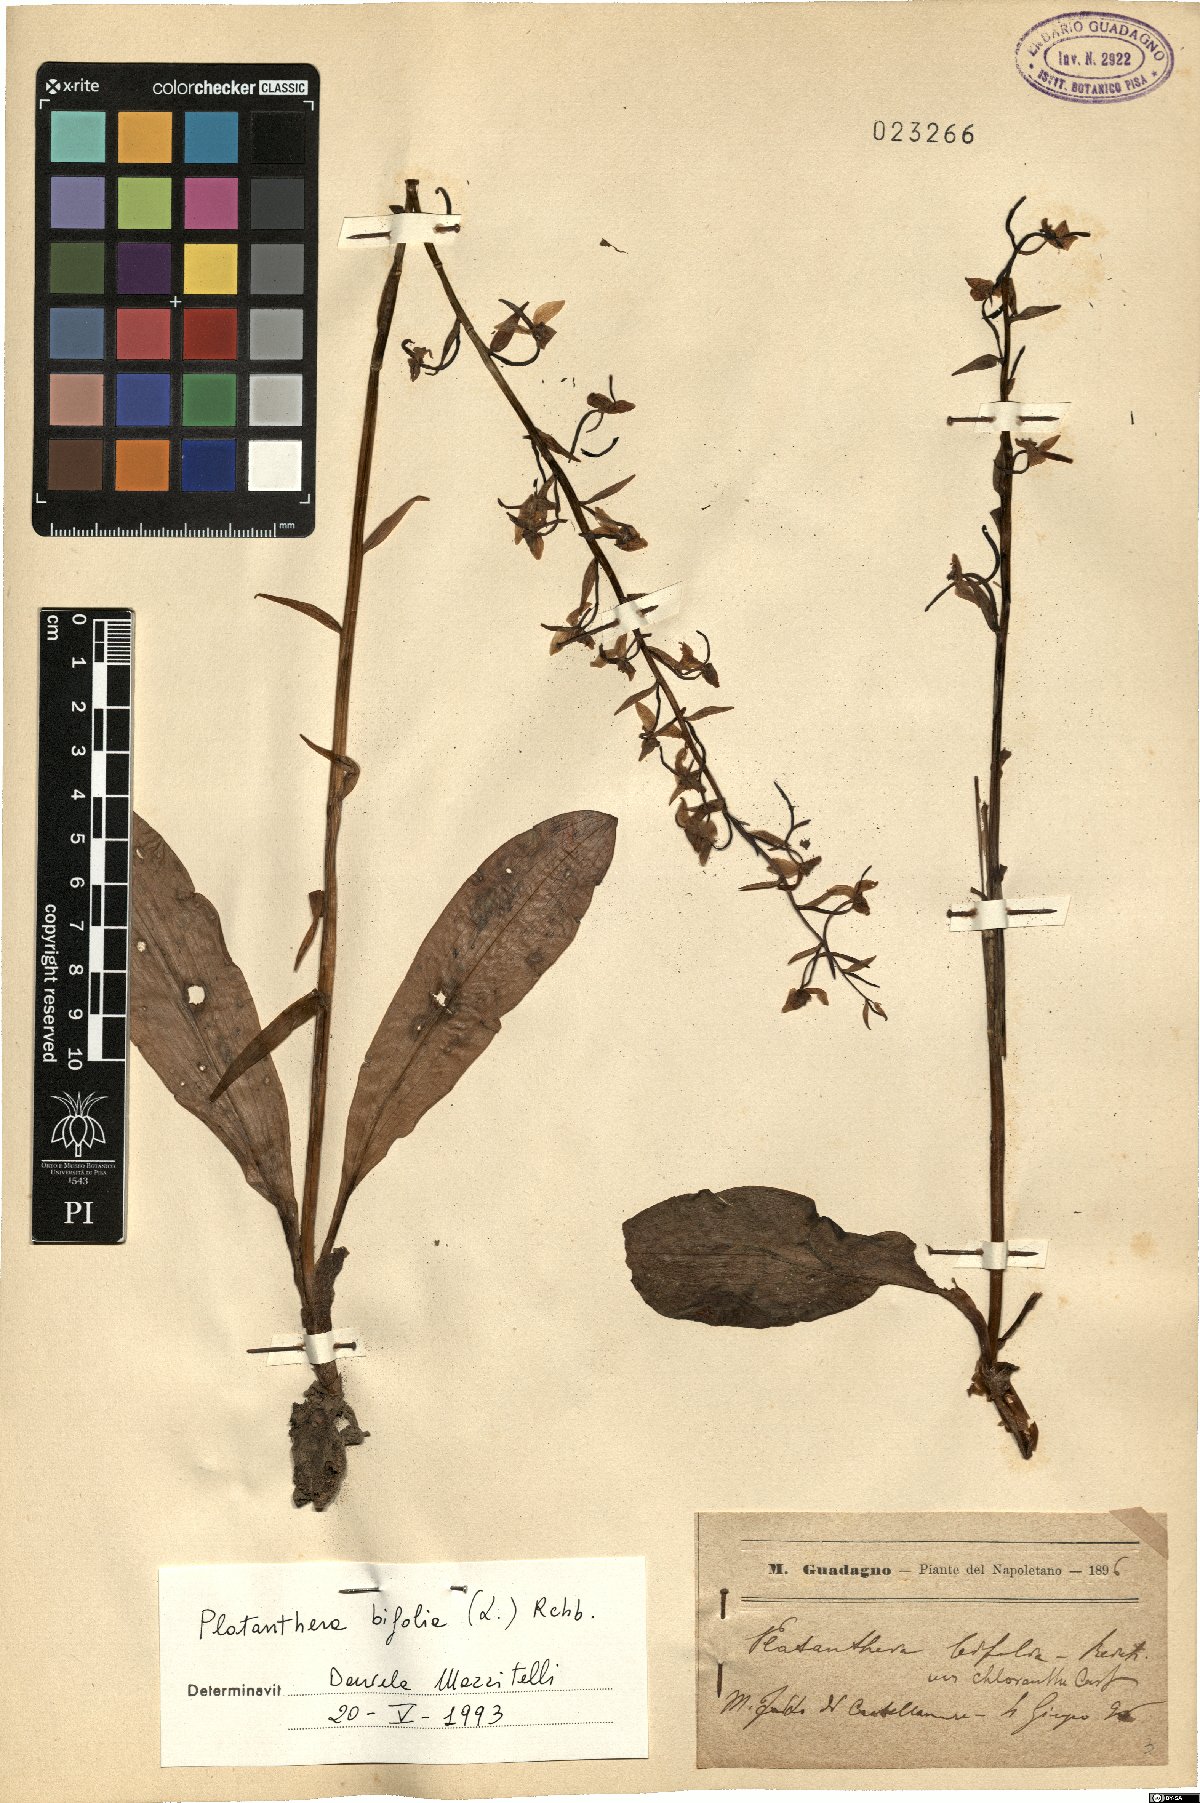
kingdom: Plantae
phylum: Tracheophyta
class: Liliopsida
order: Asparagales
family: Orchidaceae
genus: Platanthera
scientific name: Platanthera bifolia
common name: Lesser butterfly-orchid
